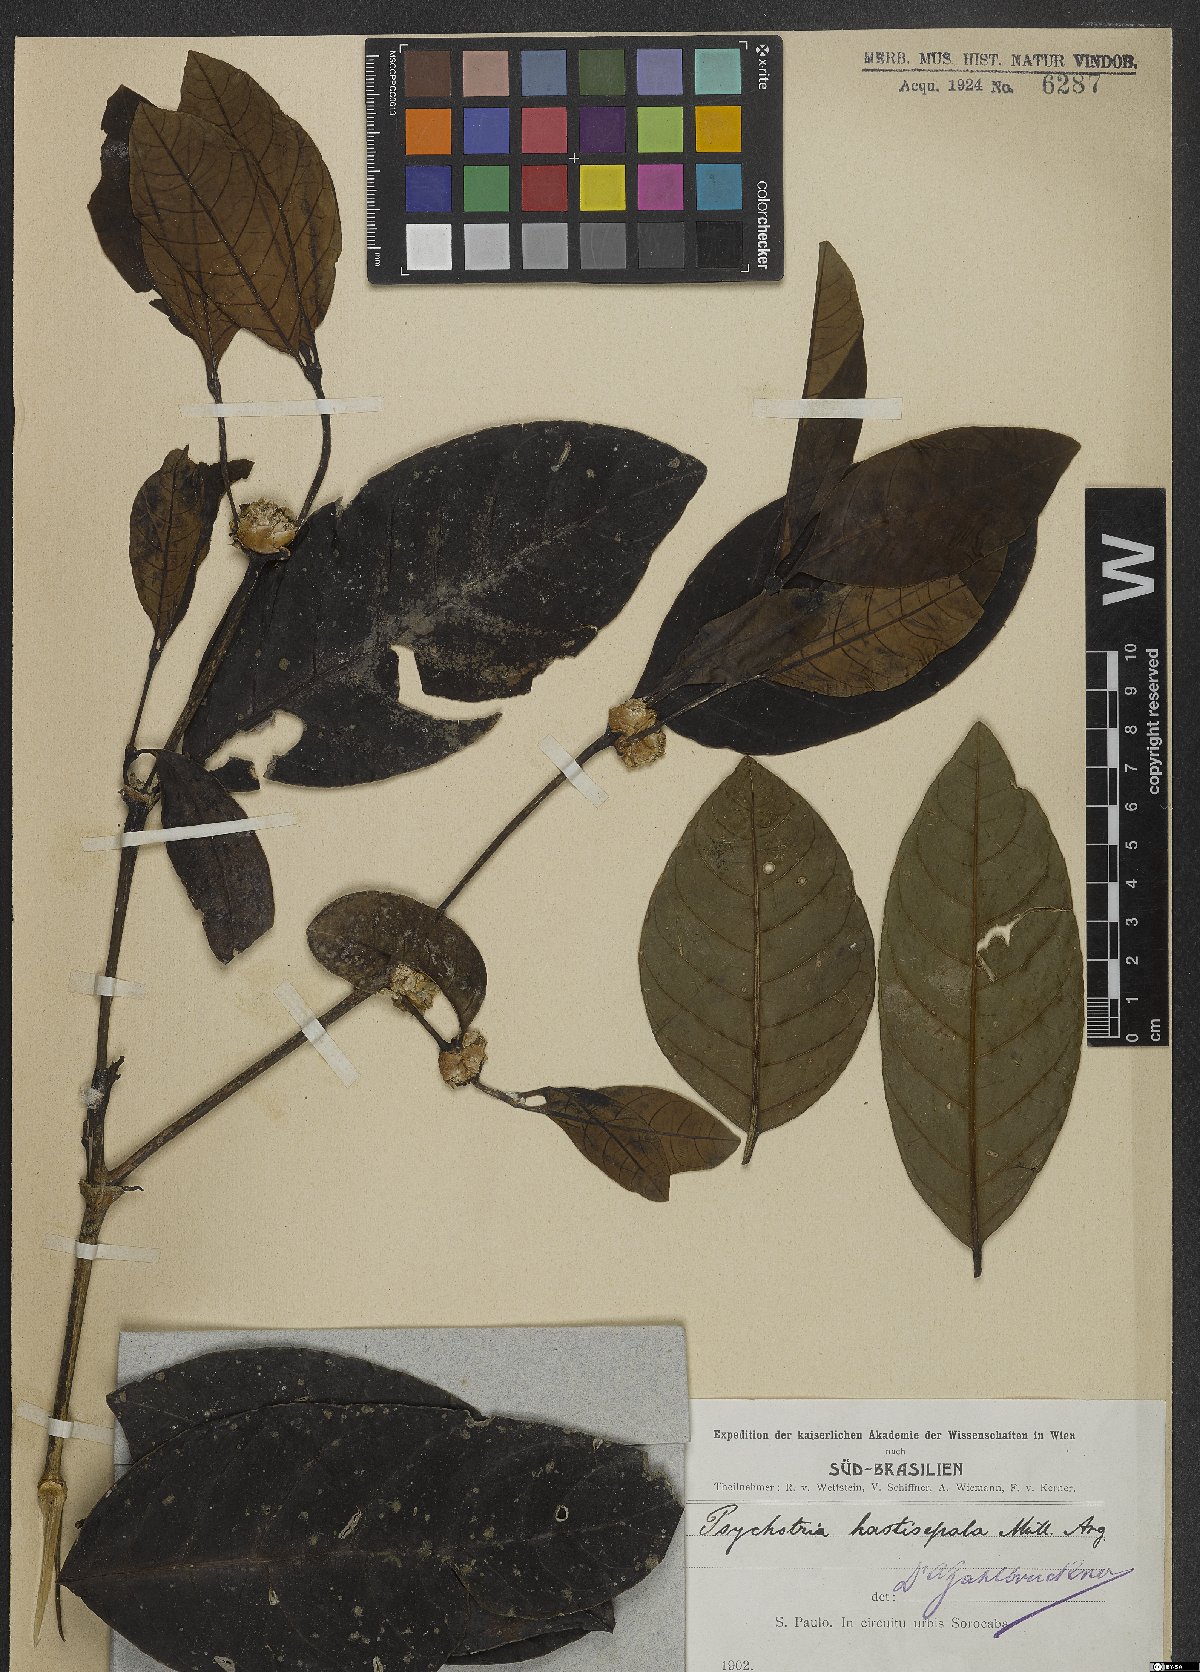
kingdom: Plantae
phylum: Tracheophyta
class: Magnoliopsida
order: Gentianales
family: Rubiaceae
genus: Psychotria
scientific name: Psychotria hastisepala
